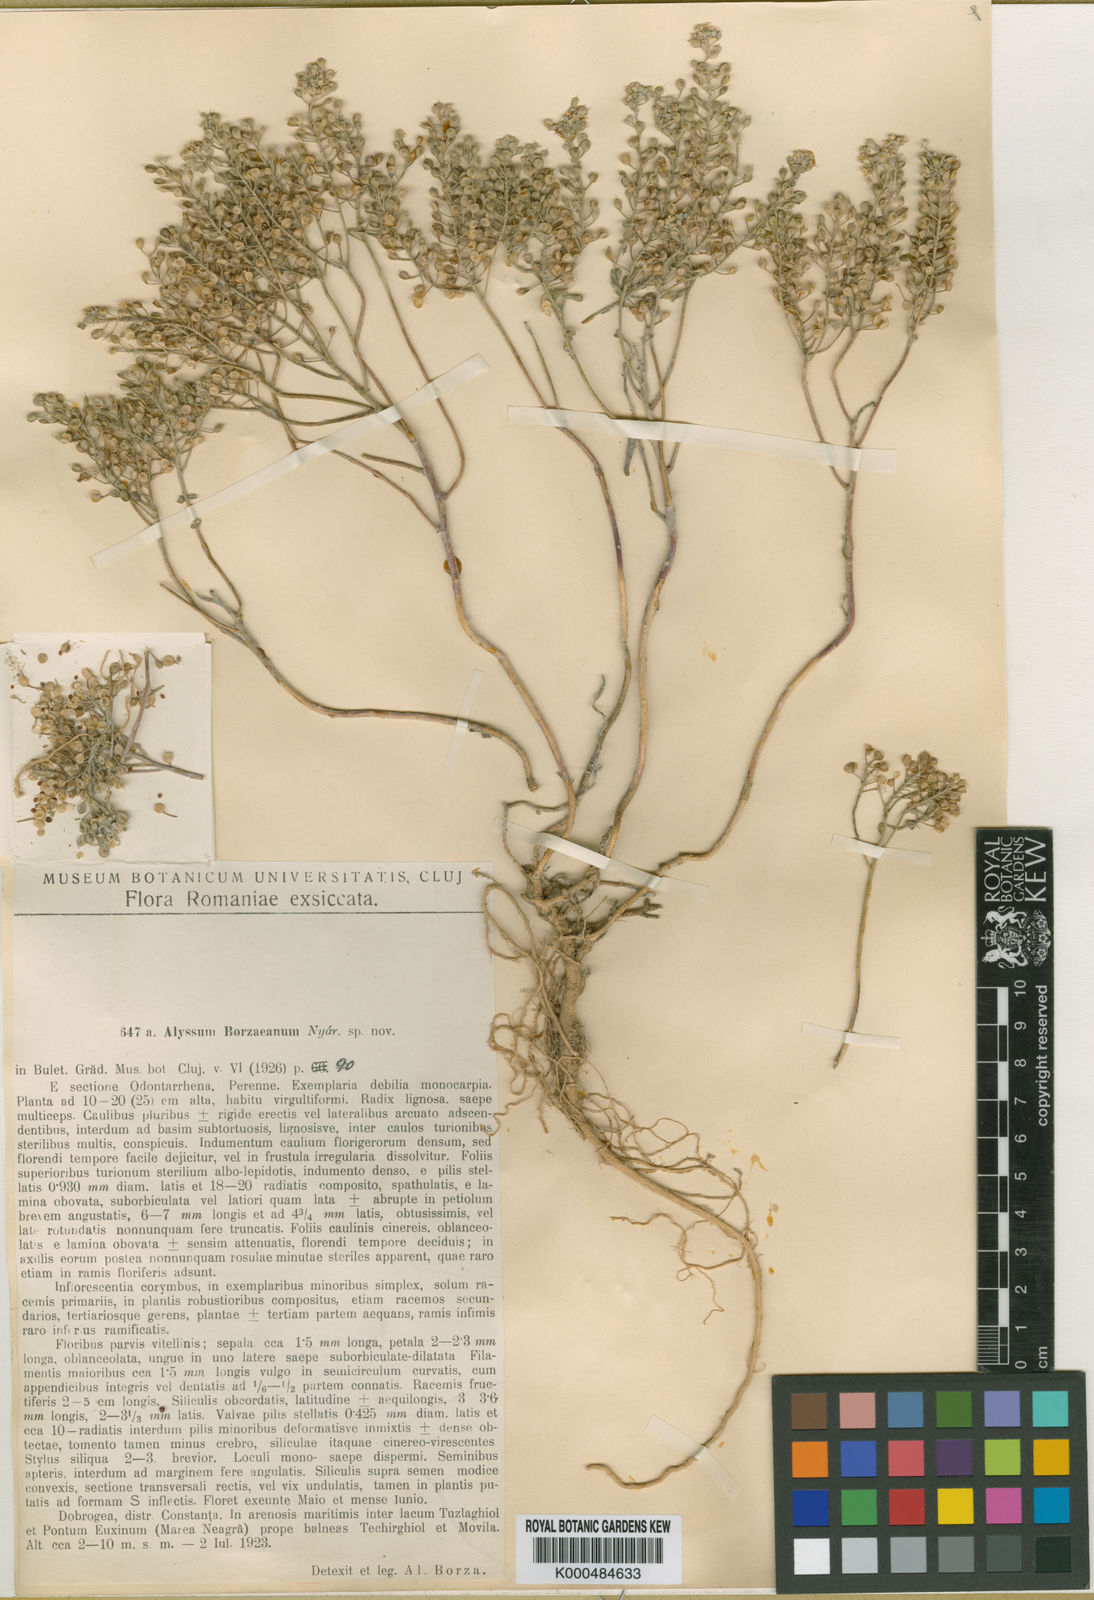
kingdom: Plantae
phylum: Tracheophyta
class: Magnoliopsida
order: Brassicales
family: Brassicaceae
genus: Odontarrhena
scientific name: Odontarrhena borzeana
